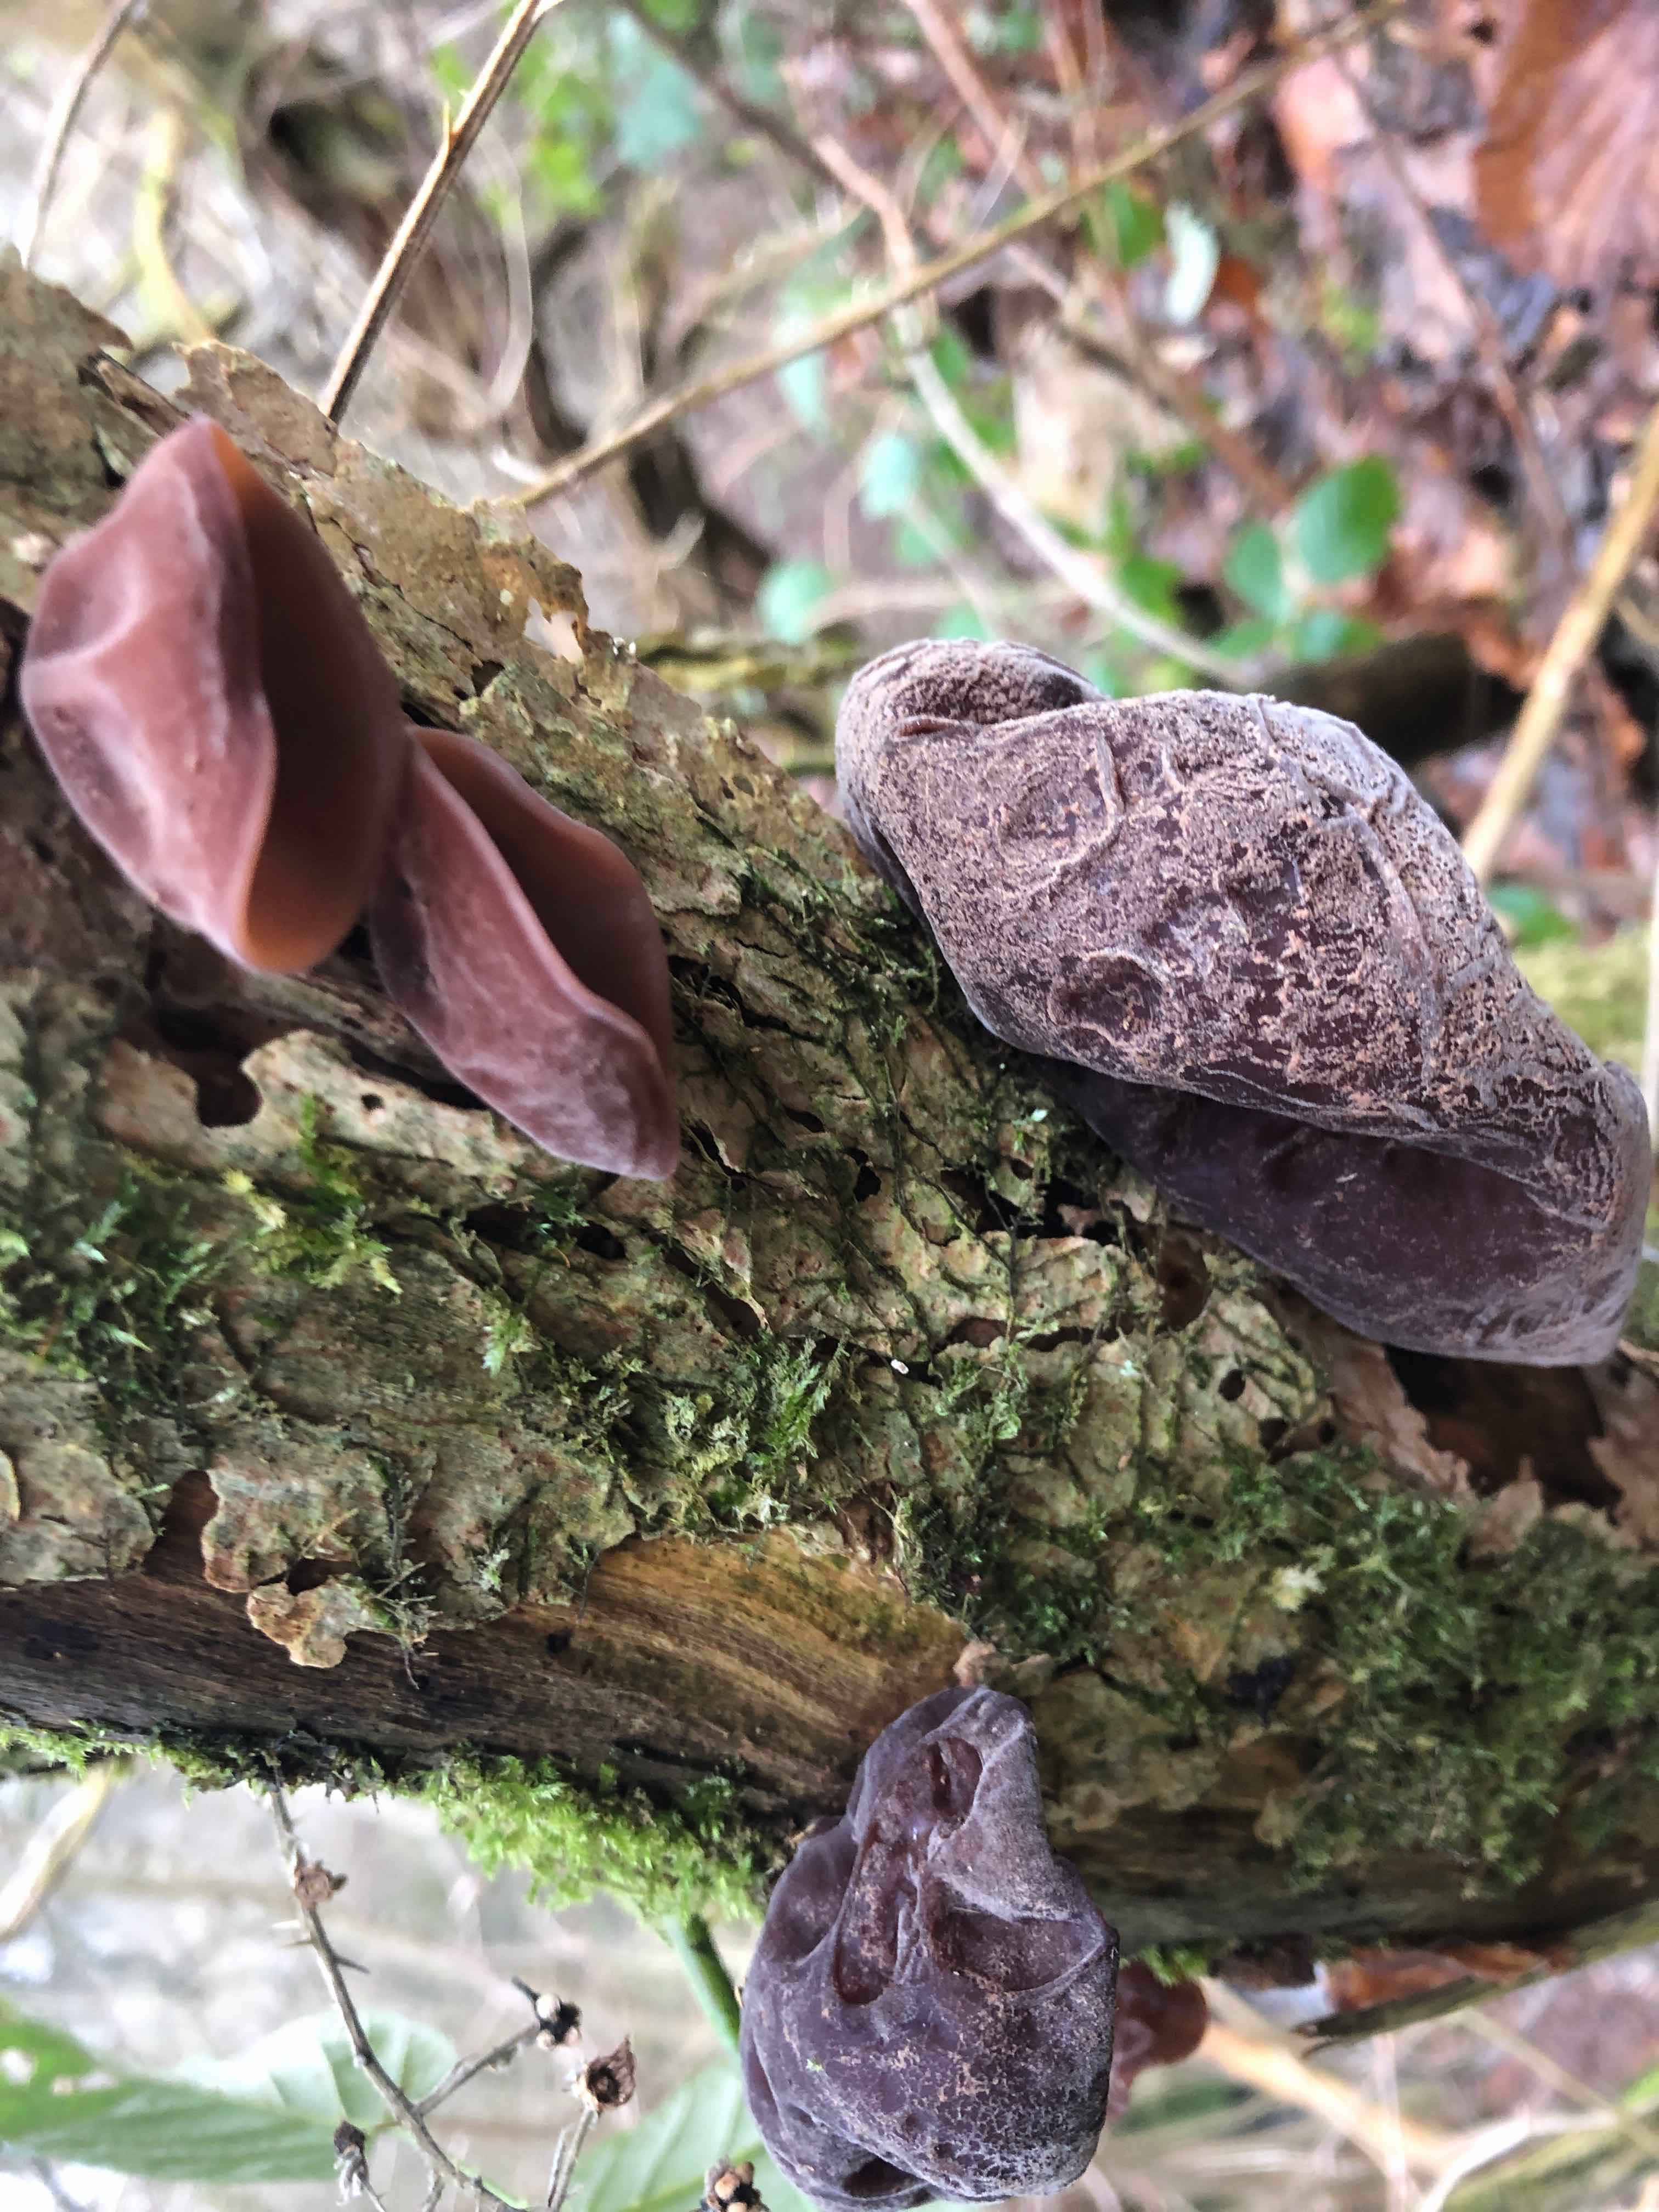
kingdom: Fungi
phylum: Basidiomycota
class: Agaricomycetes
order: Auriculariales
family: Auriculariaceae
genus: Auricularia
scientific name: Auricularia auricula-judae
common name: almindelig judasøre
